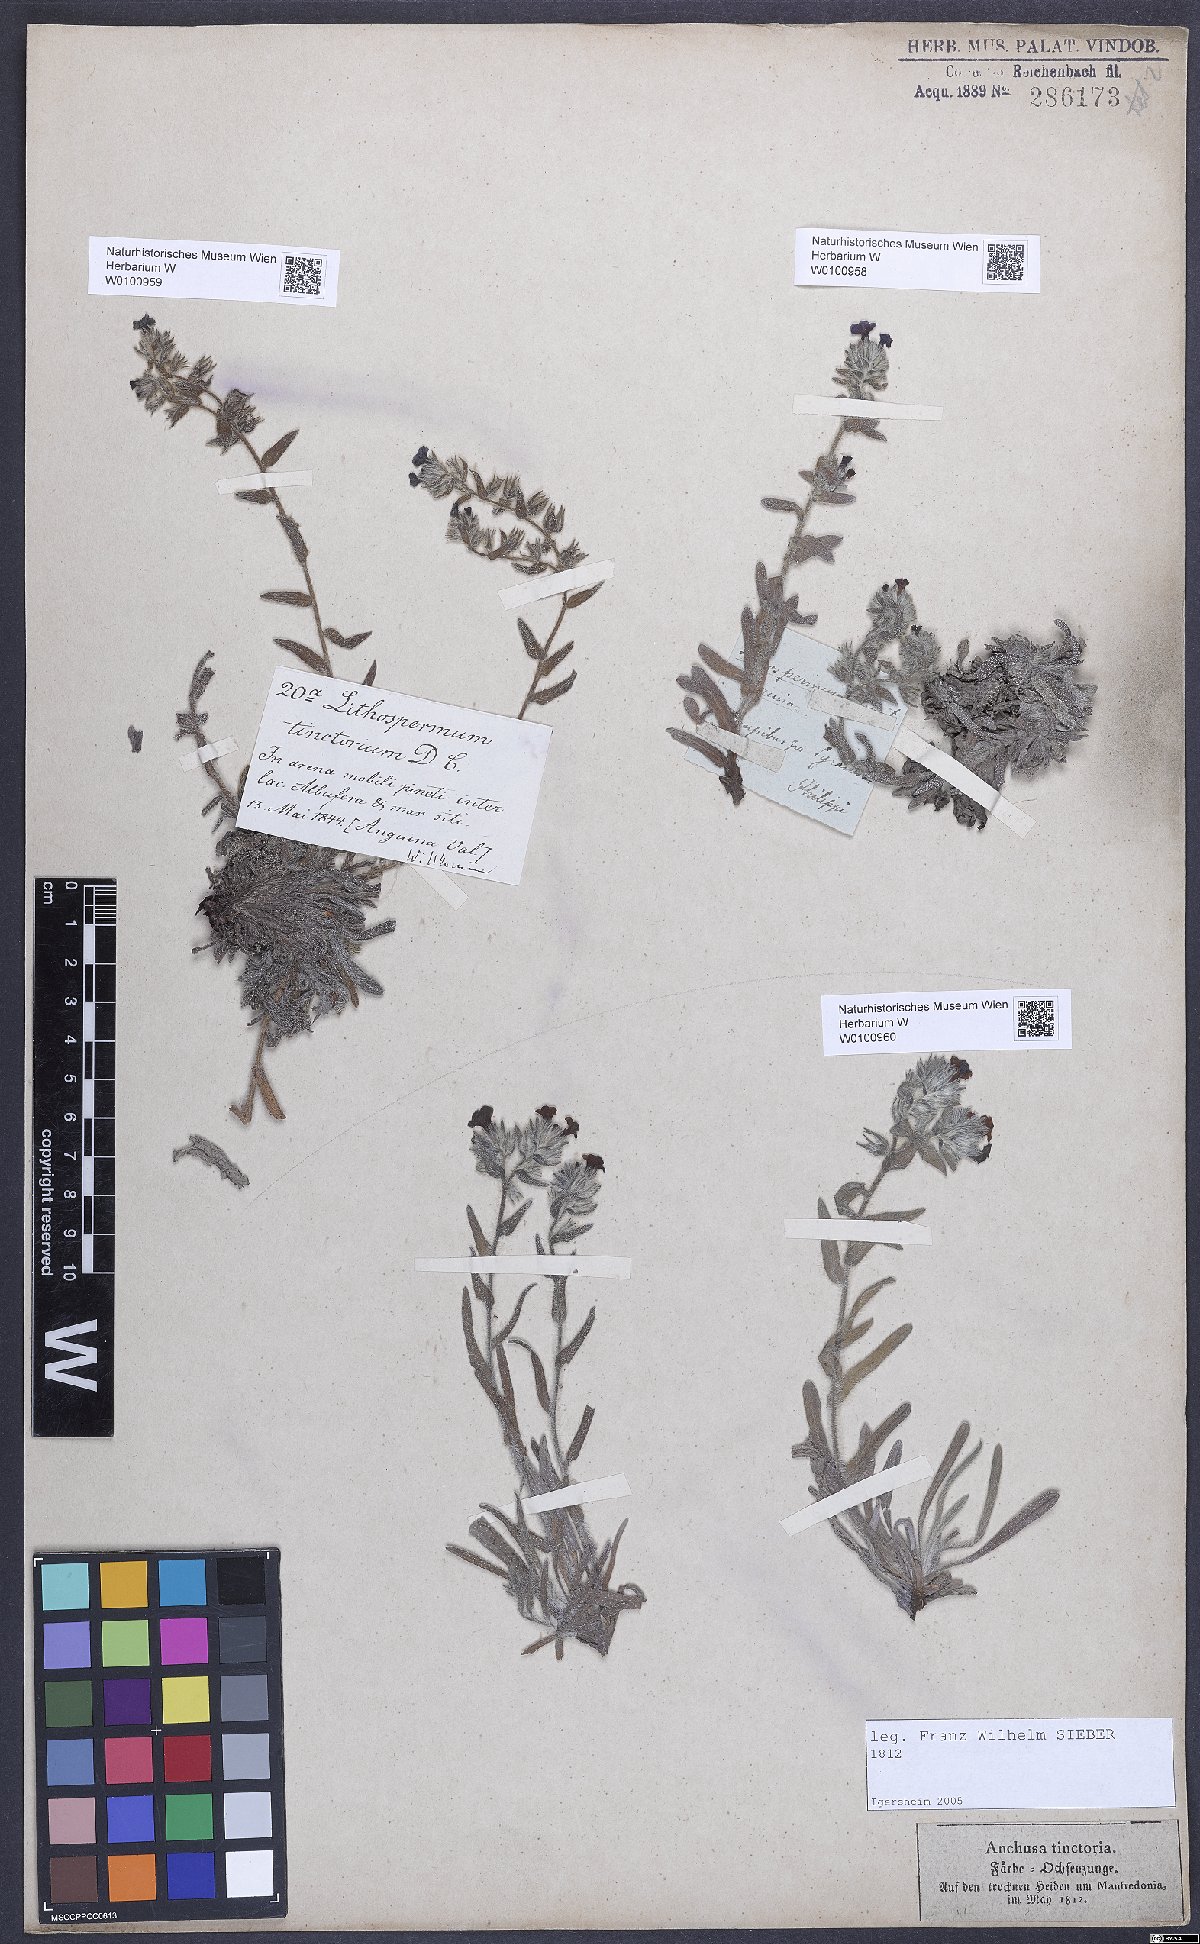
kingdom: Plantae
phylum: Tracheophyta
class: Magnoliopsida
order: Boraginales
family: Boraginaceae
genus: Alkanna
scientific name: Alkanna tinctoria
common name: Dyer's-alkanet
